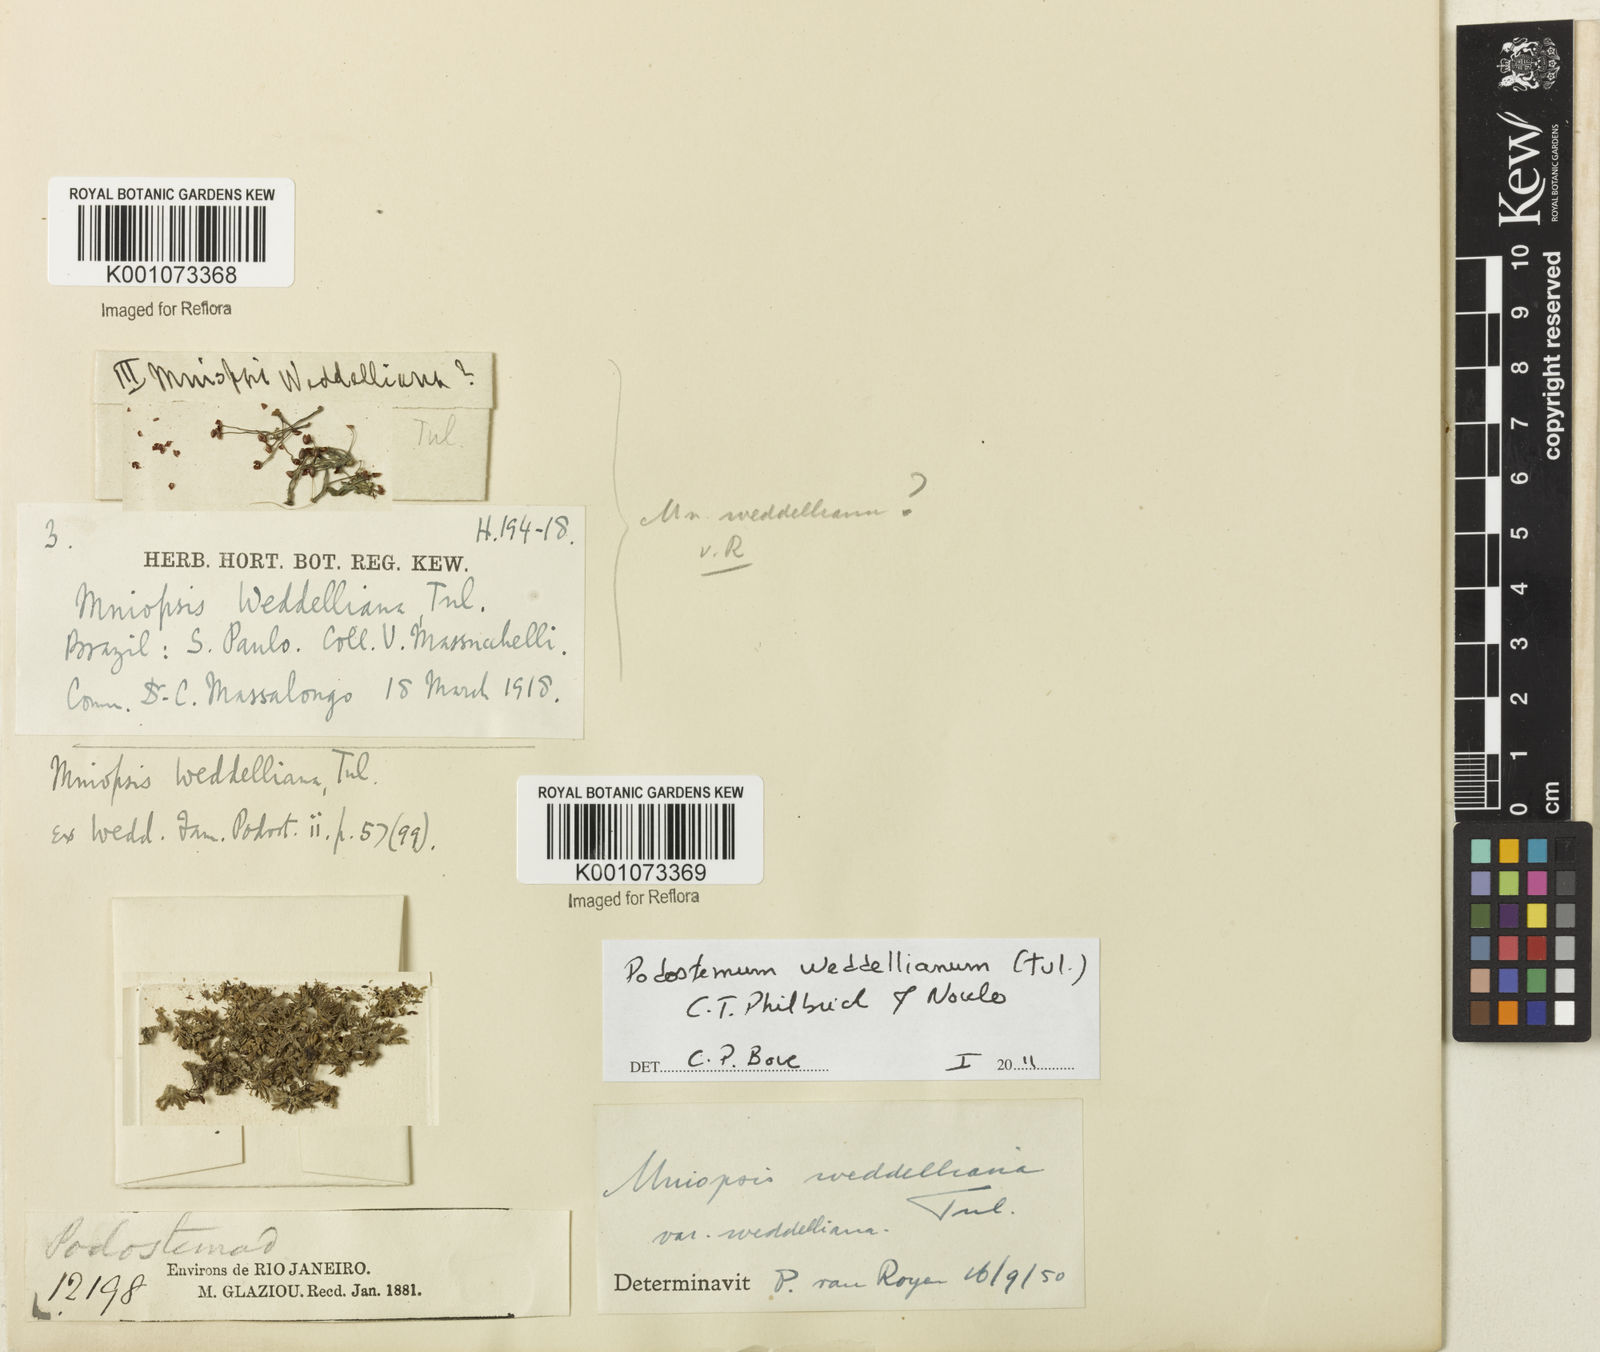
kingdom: Plantae
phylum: Tracheophyta
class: Magnoliopsida
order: Malpighiales
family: Podostemaceae
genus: Podostemum
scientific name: Podostemum weddellianum
